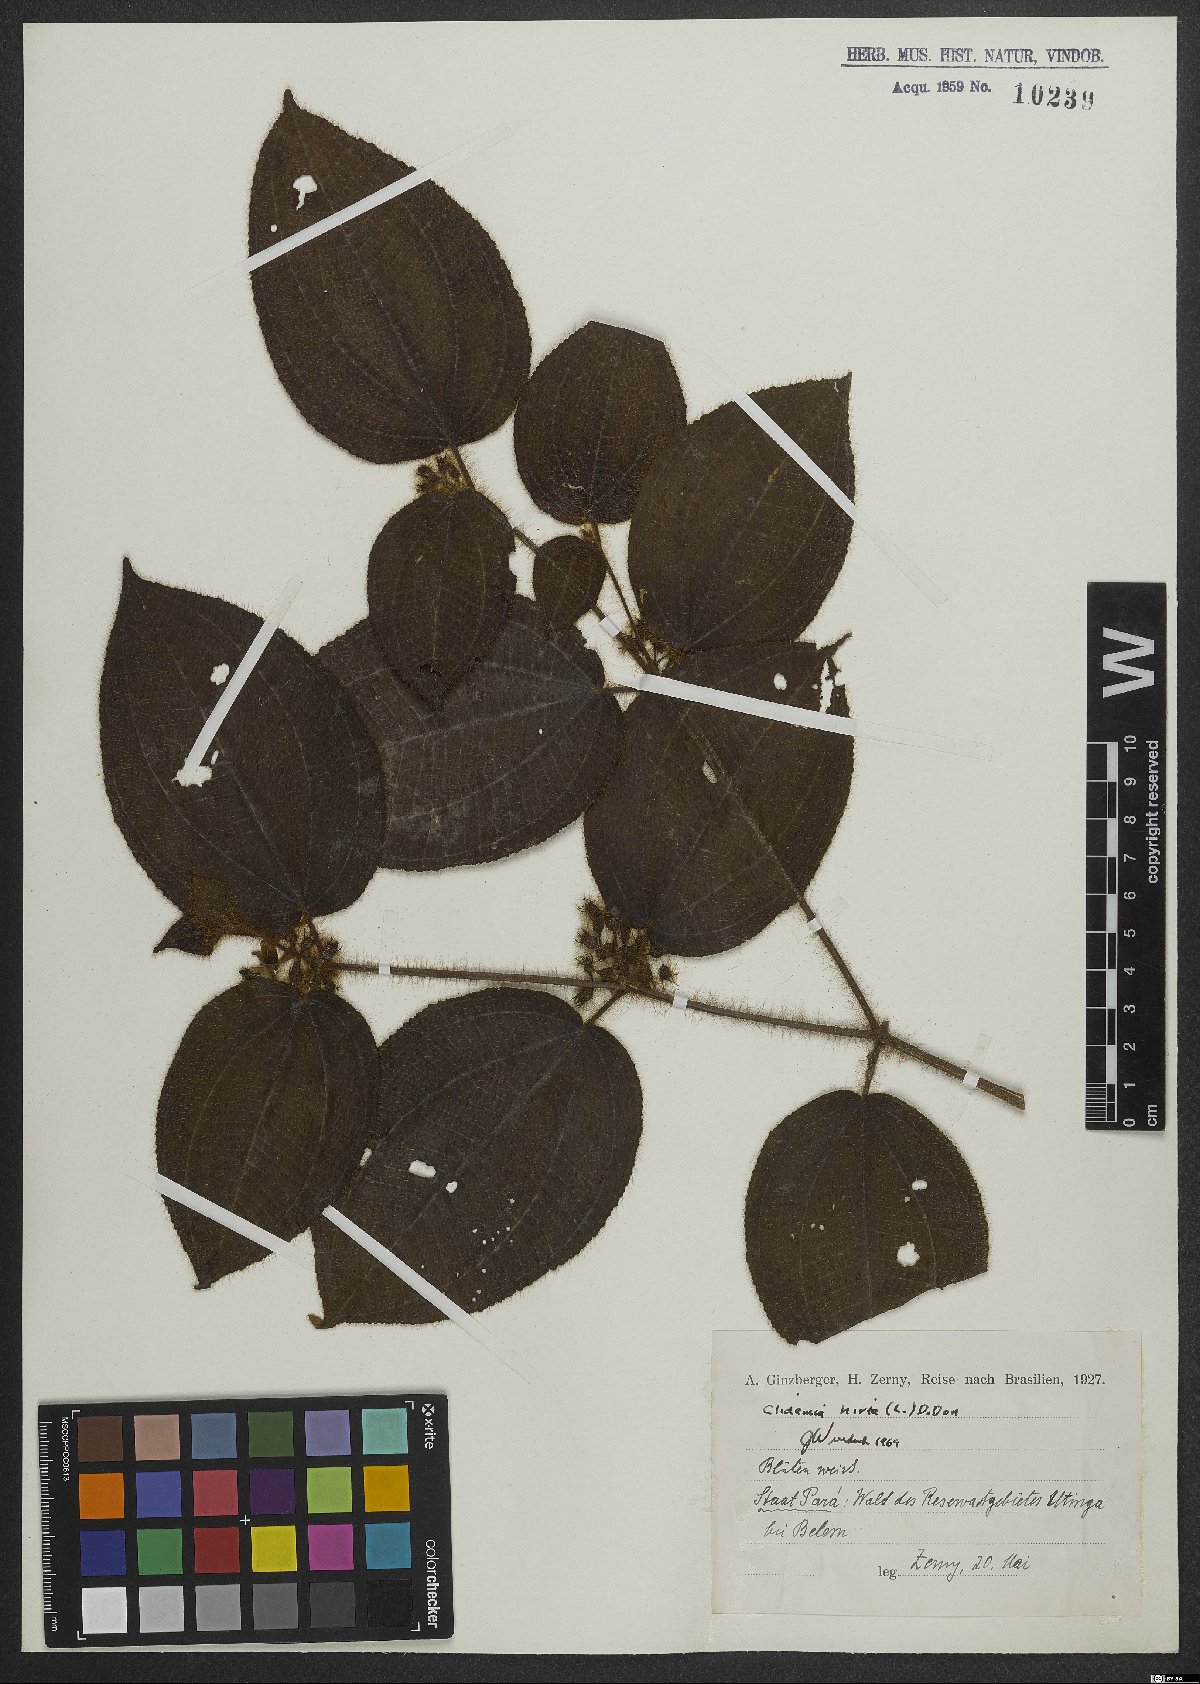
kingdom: Plantae
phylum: Tracheophyta
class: Magnoliopsida
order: Myrtales
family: Melastomataceae
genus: Miconia
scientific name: Miconia crenata
